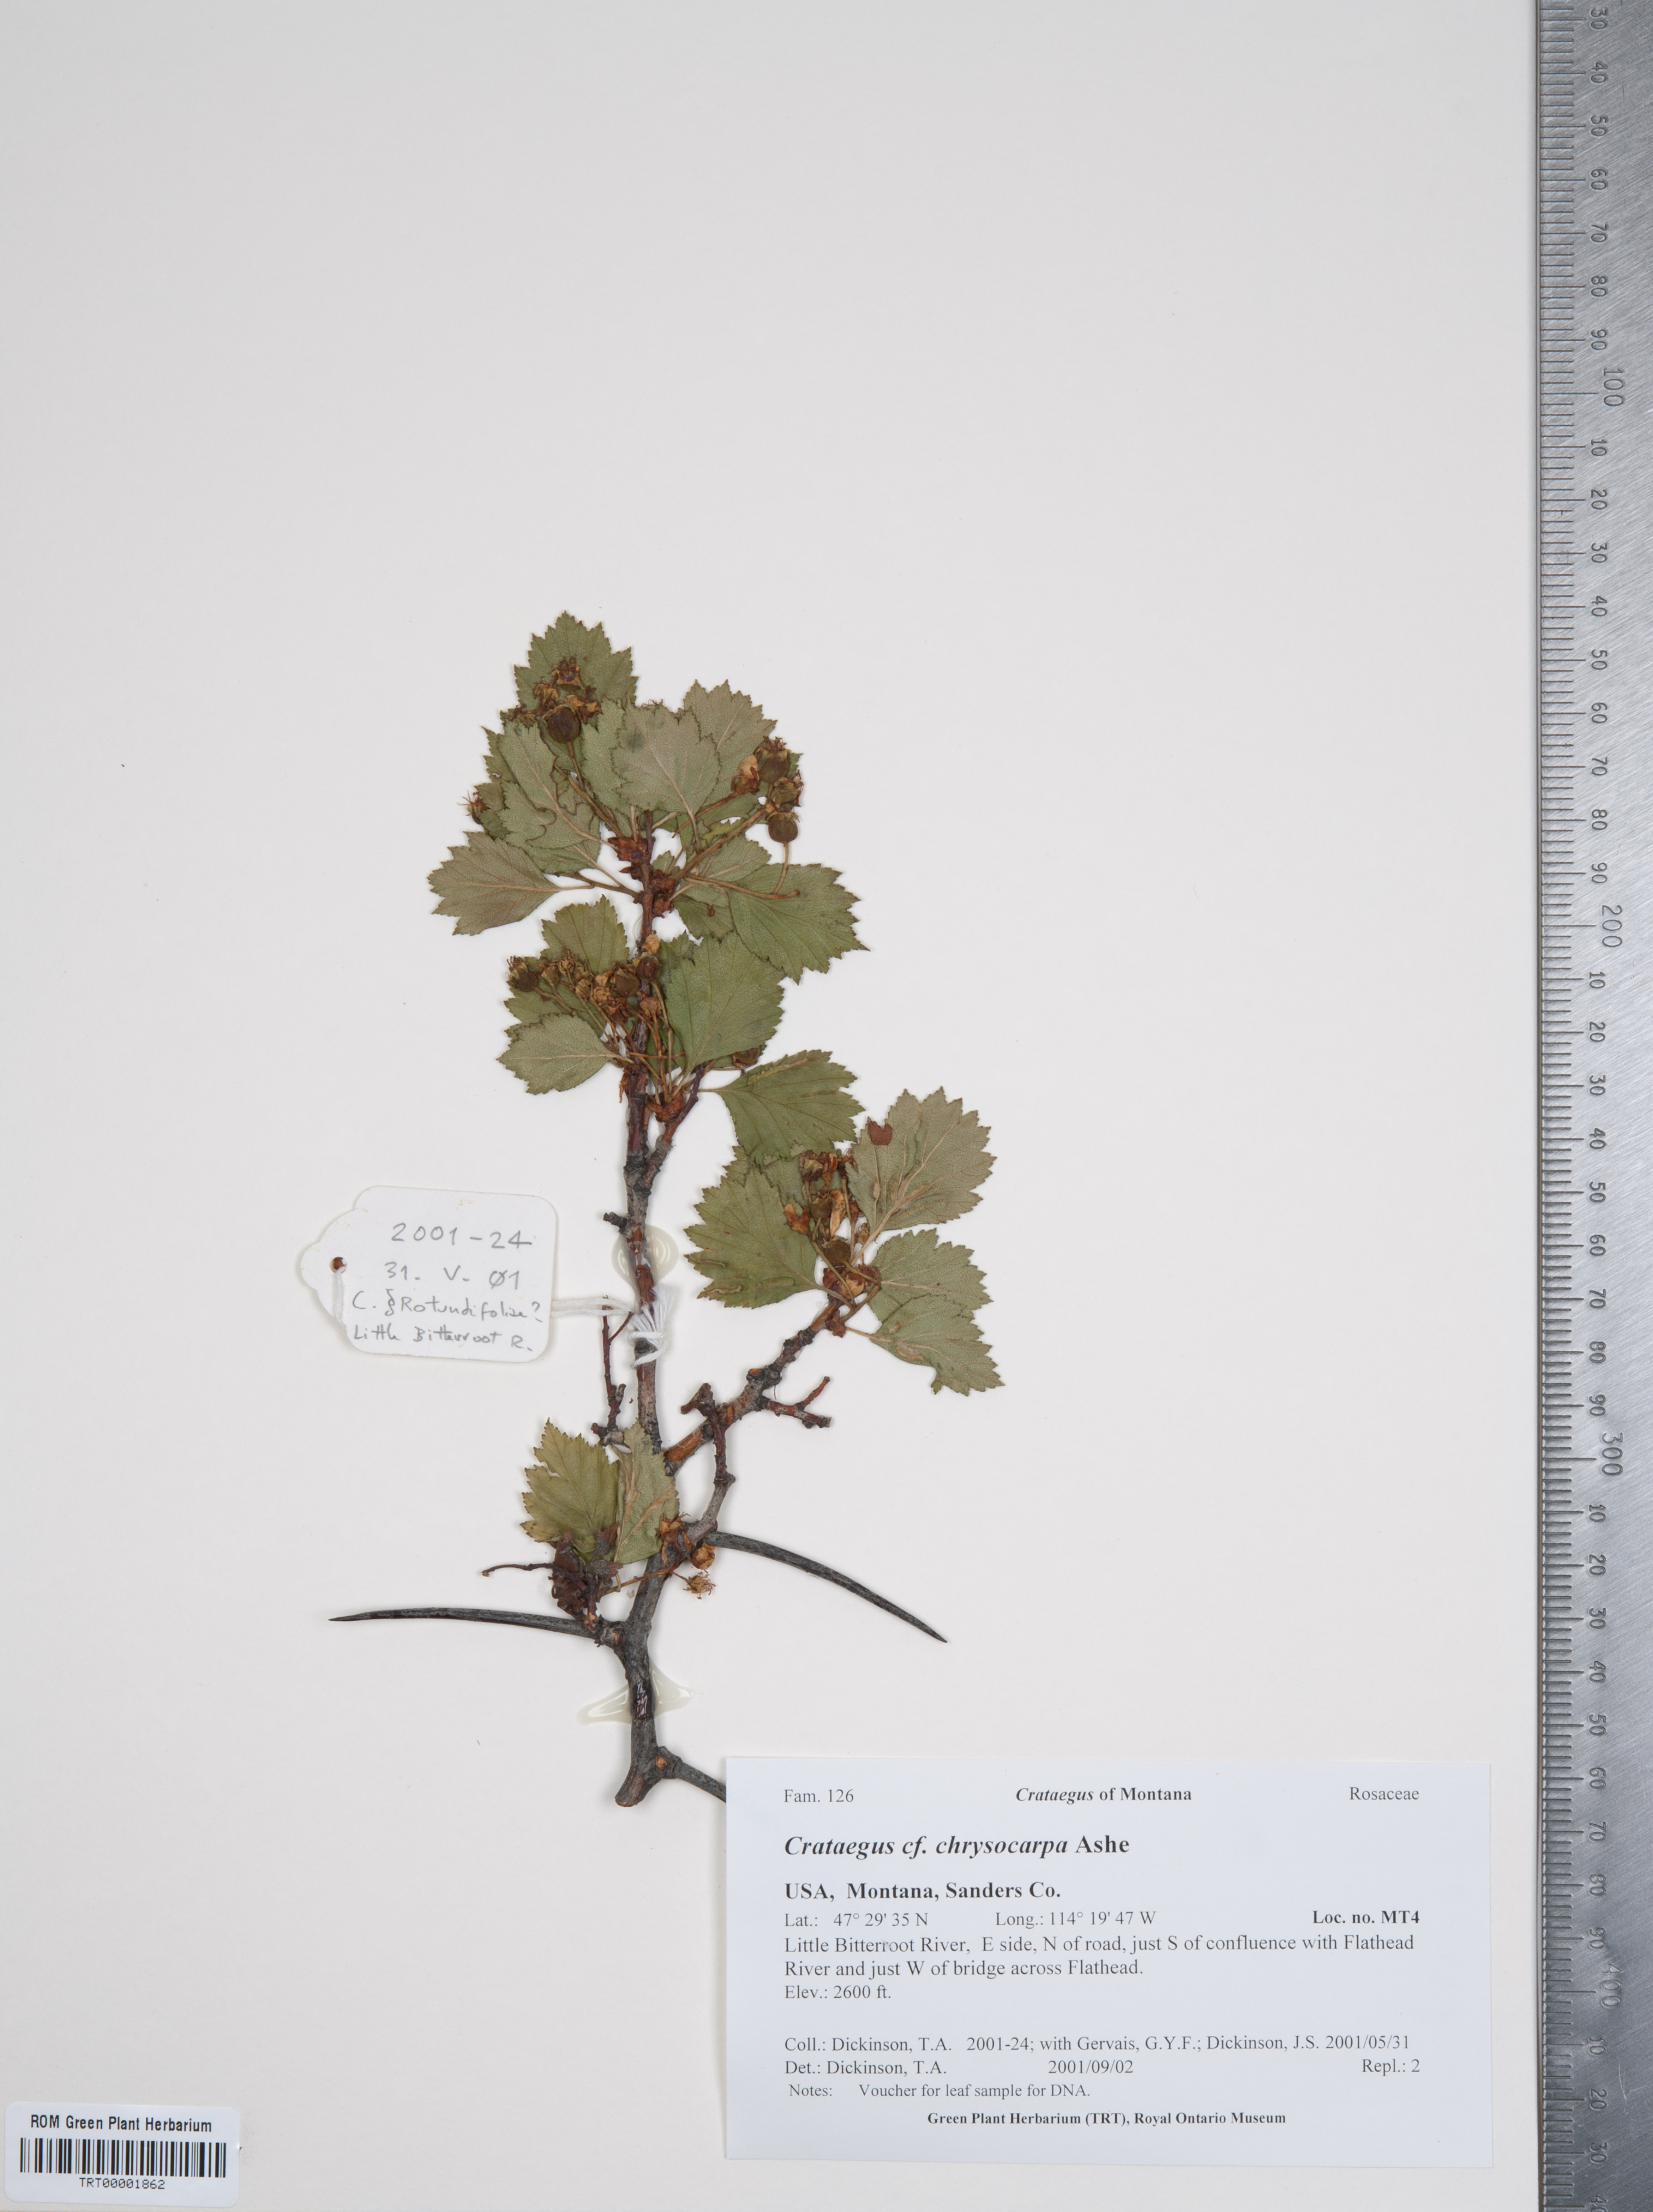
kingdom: Plantae
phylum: Tracheophyta
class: Magnoliopsida
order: Rosales
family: Rosaceae
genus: Crataegus
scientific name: Crataegus chrysocarpa
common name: Fire-berry hawthorn
